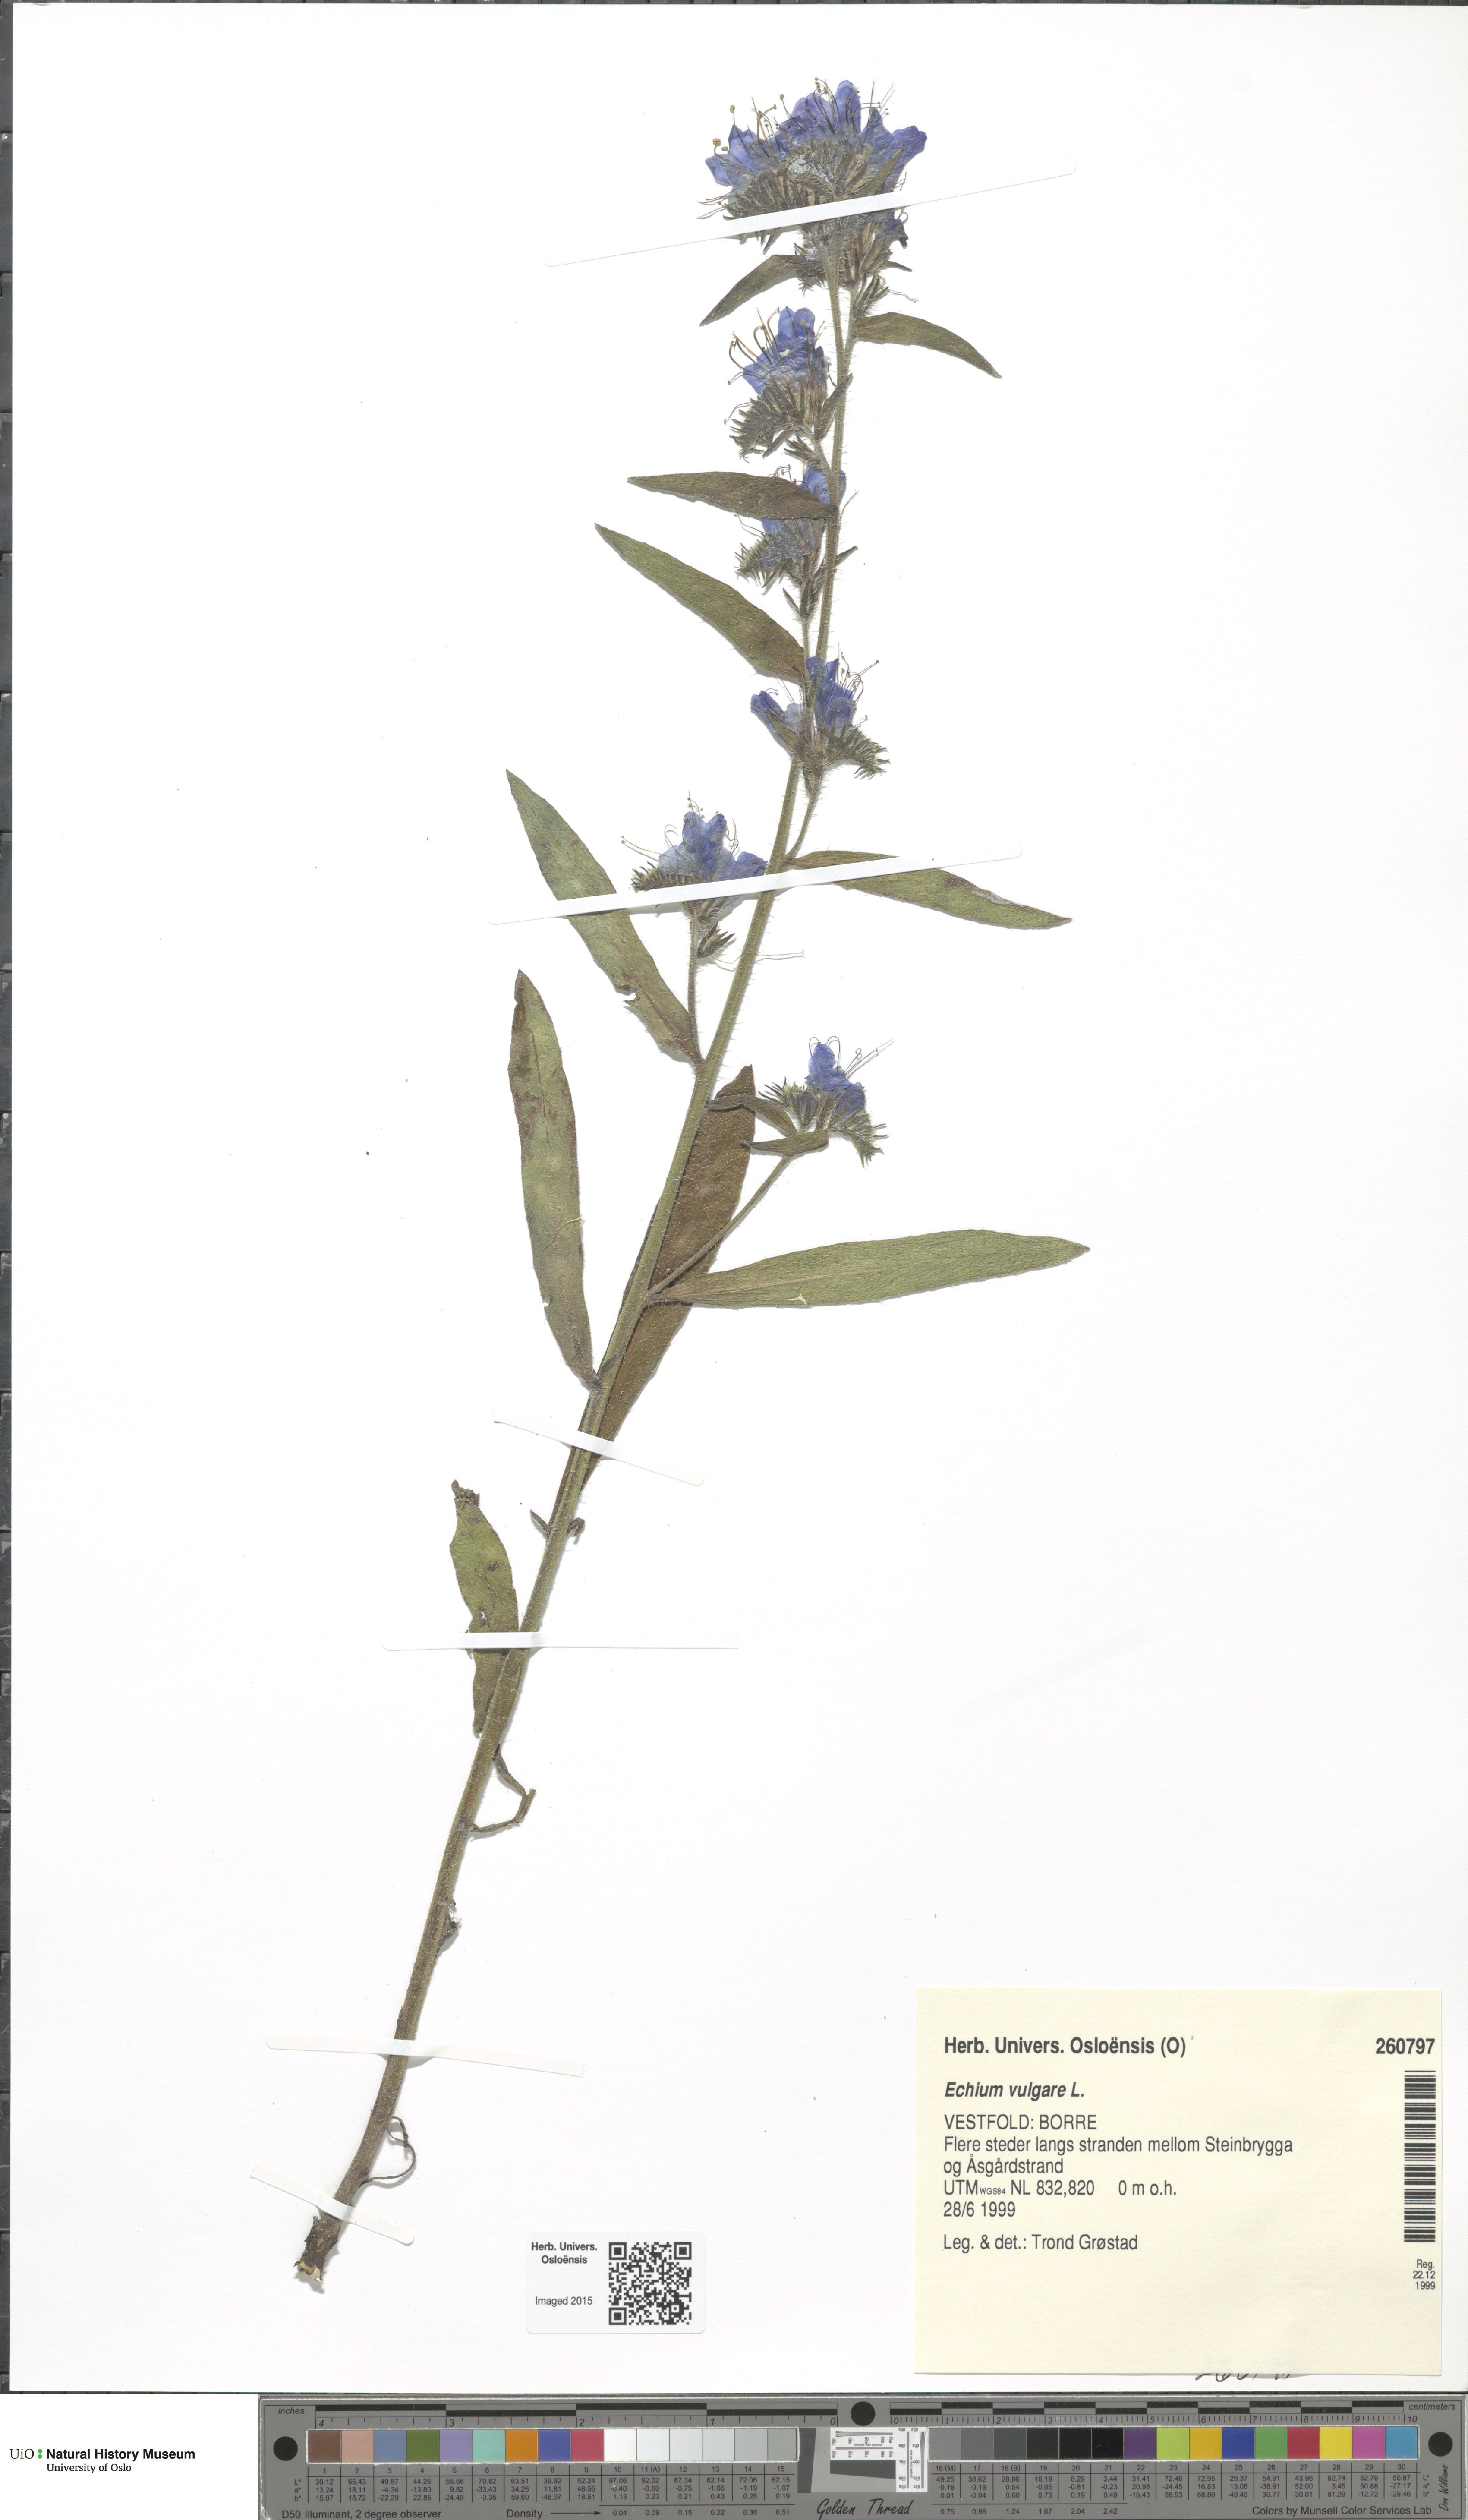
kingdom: Plantae
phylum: Tracheophyta
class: Magnoliopsida
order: Boraginales
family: Boraginaceae
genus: Echium
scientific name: Echium vulgare
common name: Common viper's bugloss
